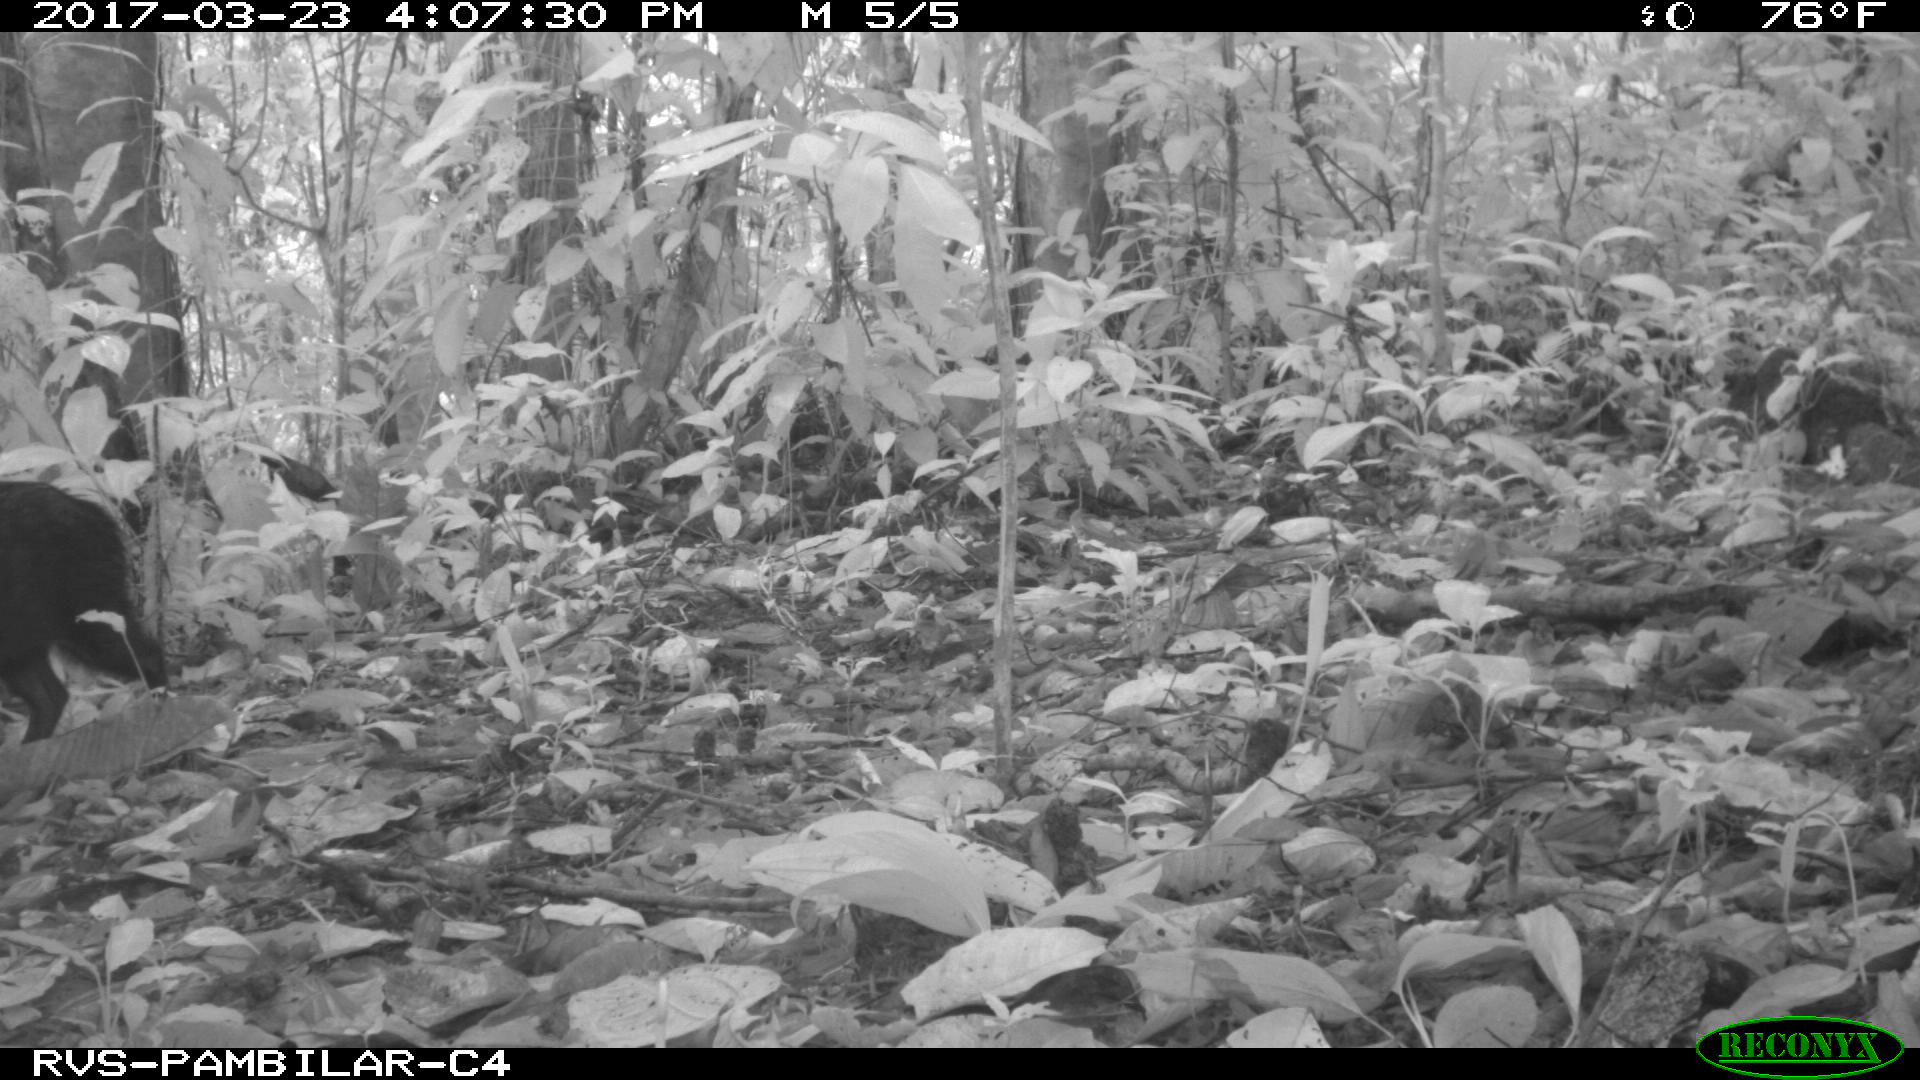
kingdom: Animalia
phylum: Chordata
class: Mammalia
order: Artiodactyla
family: Tayassuidae
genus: Tayassu
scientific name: Tayassu pecari
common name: White-lipped peccary
